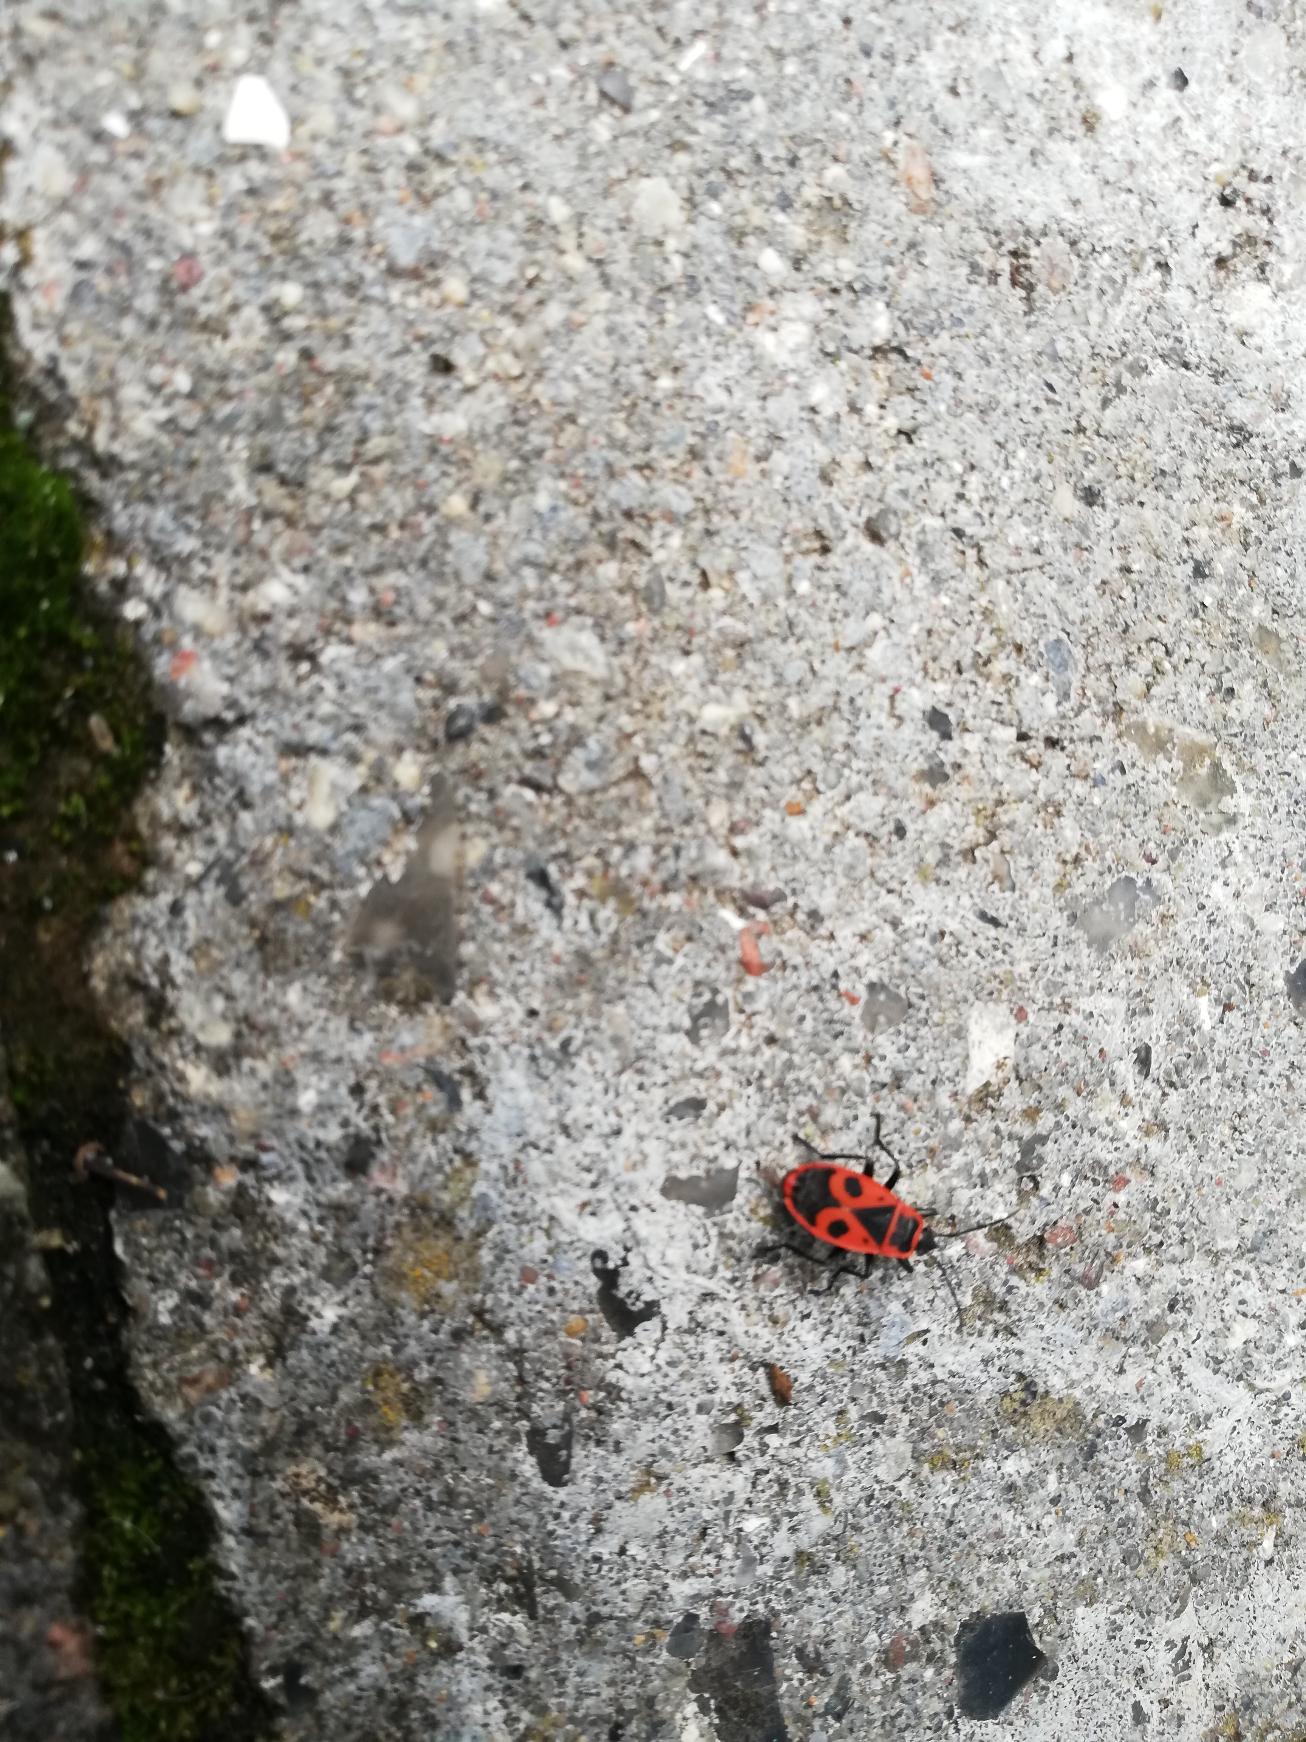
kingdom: Animalia
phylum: Arthropoda
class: Insecta
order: Hemiptera
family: Pyrrhocoridae
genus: Pyrrhocoris
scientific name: Pyrrhocoris apterus
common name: Ildtæge
